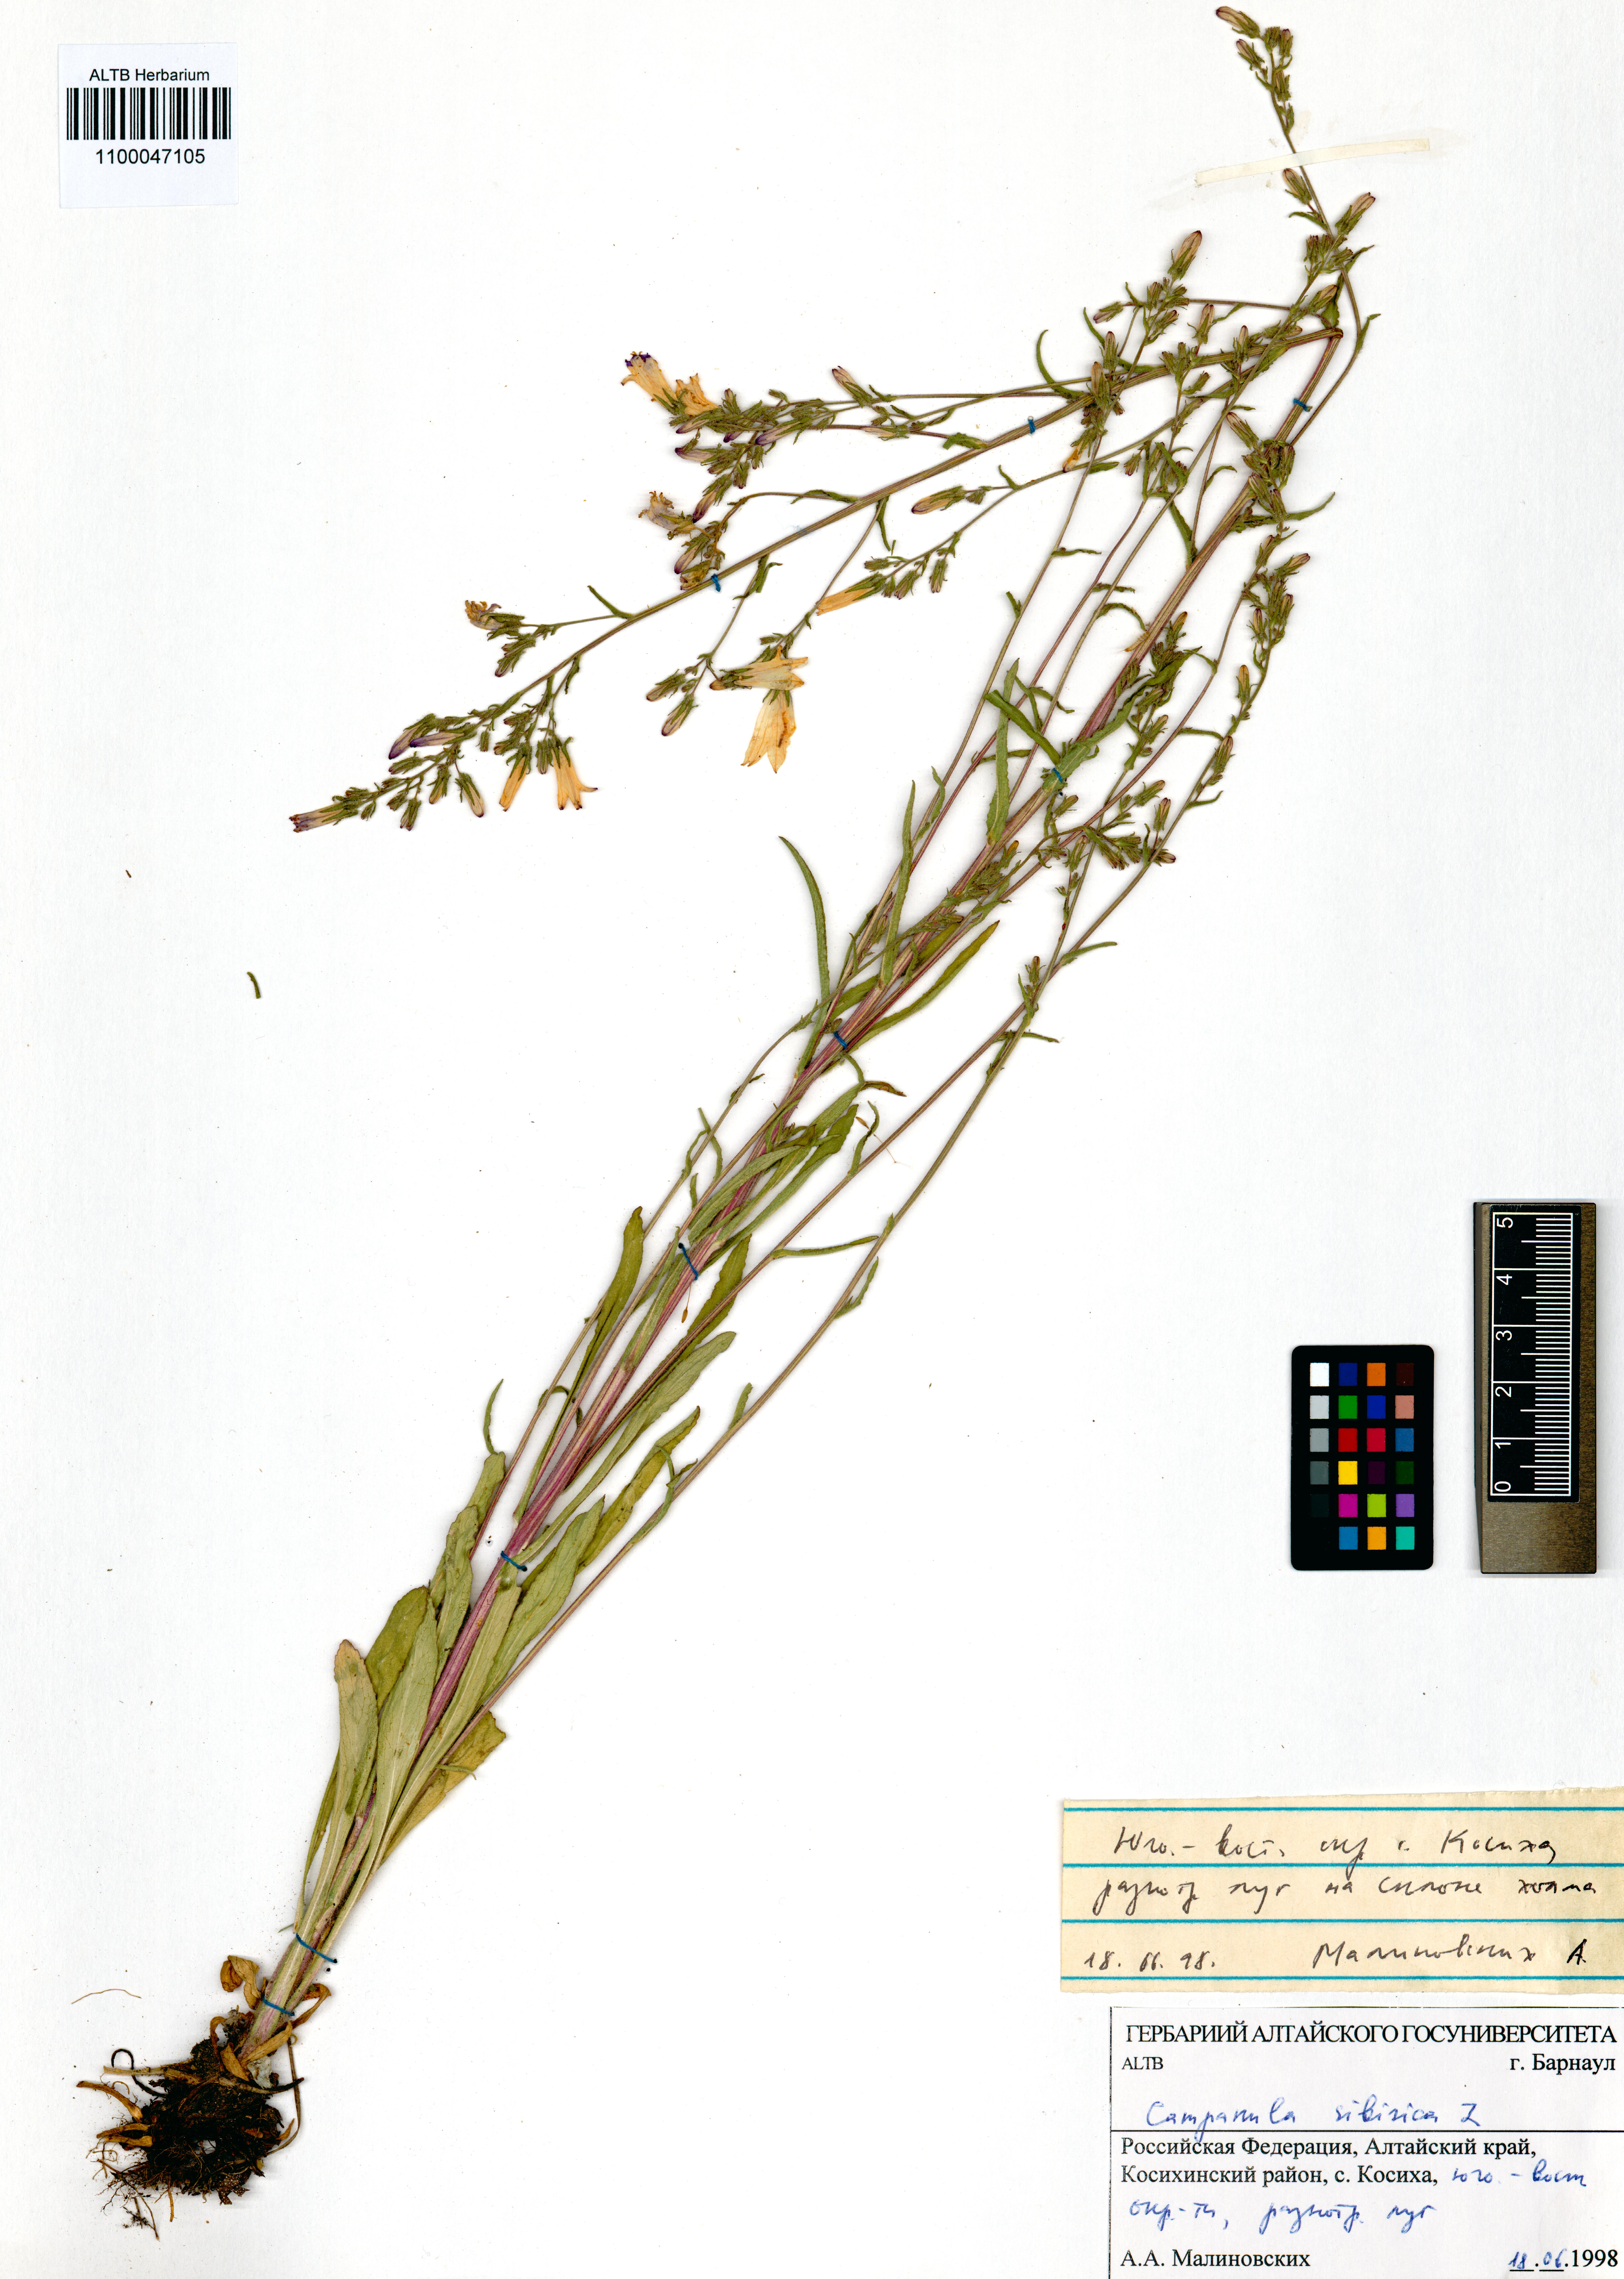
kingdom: Plantae
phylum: Tracheophyta
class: Magnoliopsida
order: Asterales
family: Campanulaceae
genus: Campanula
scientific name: Campanula sibirica
